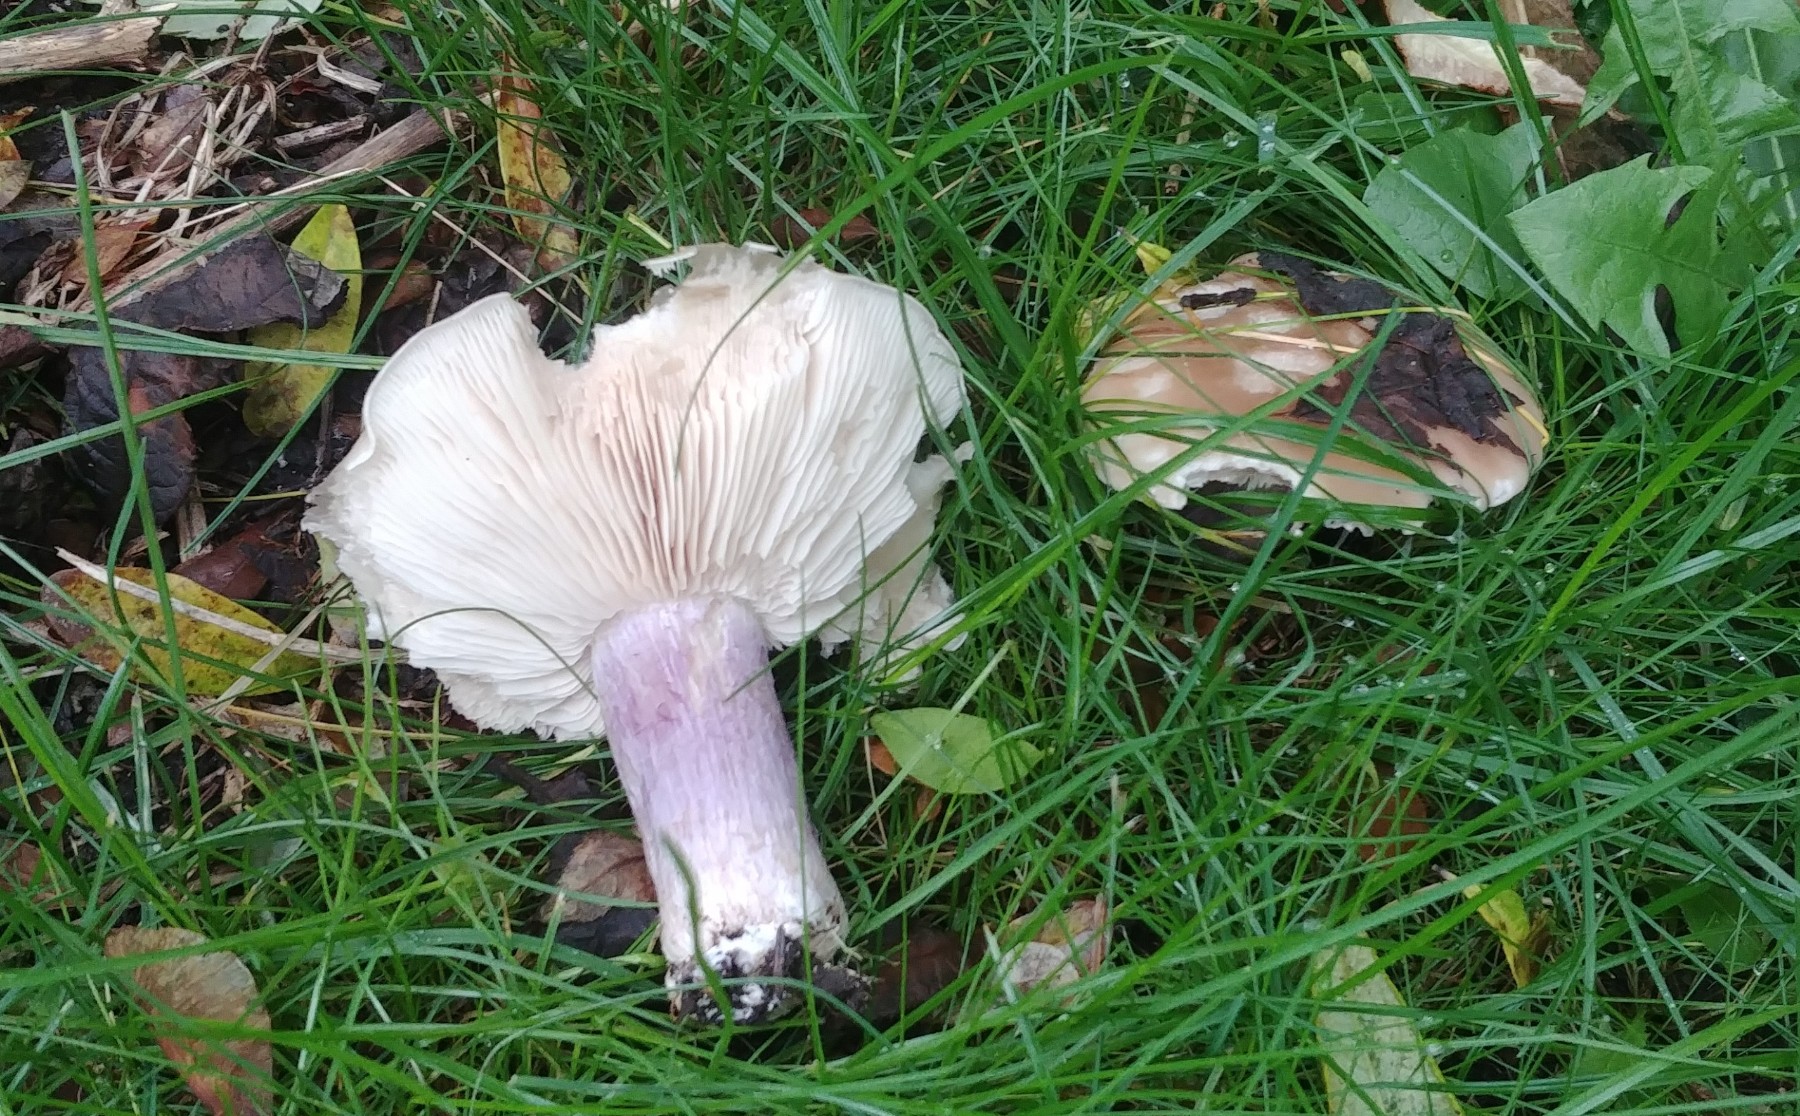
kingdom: Fungi
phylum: Basidiomycota
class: Agaricomycetes
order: Agaricales
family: Tricholomataceae
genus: Lepista
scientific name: Lepista personata
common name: bleg hekseringshat
